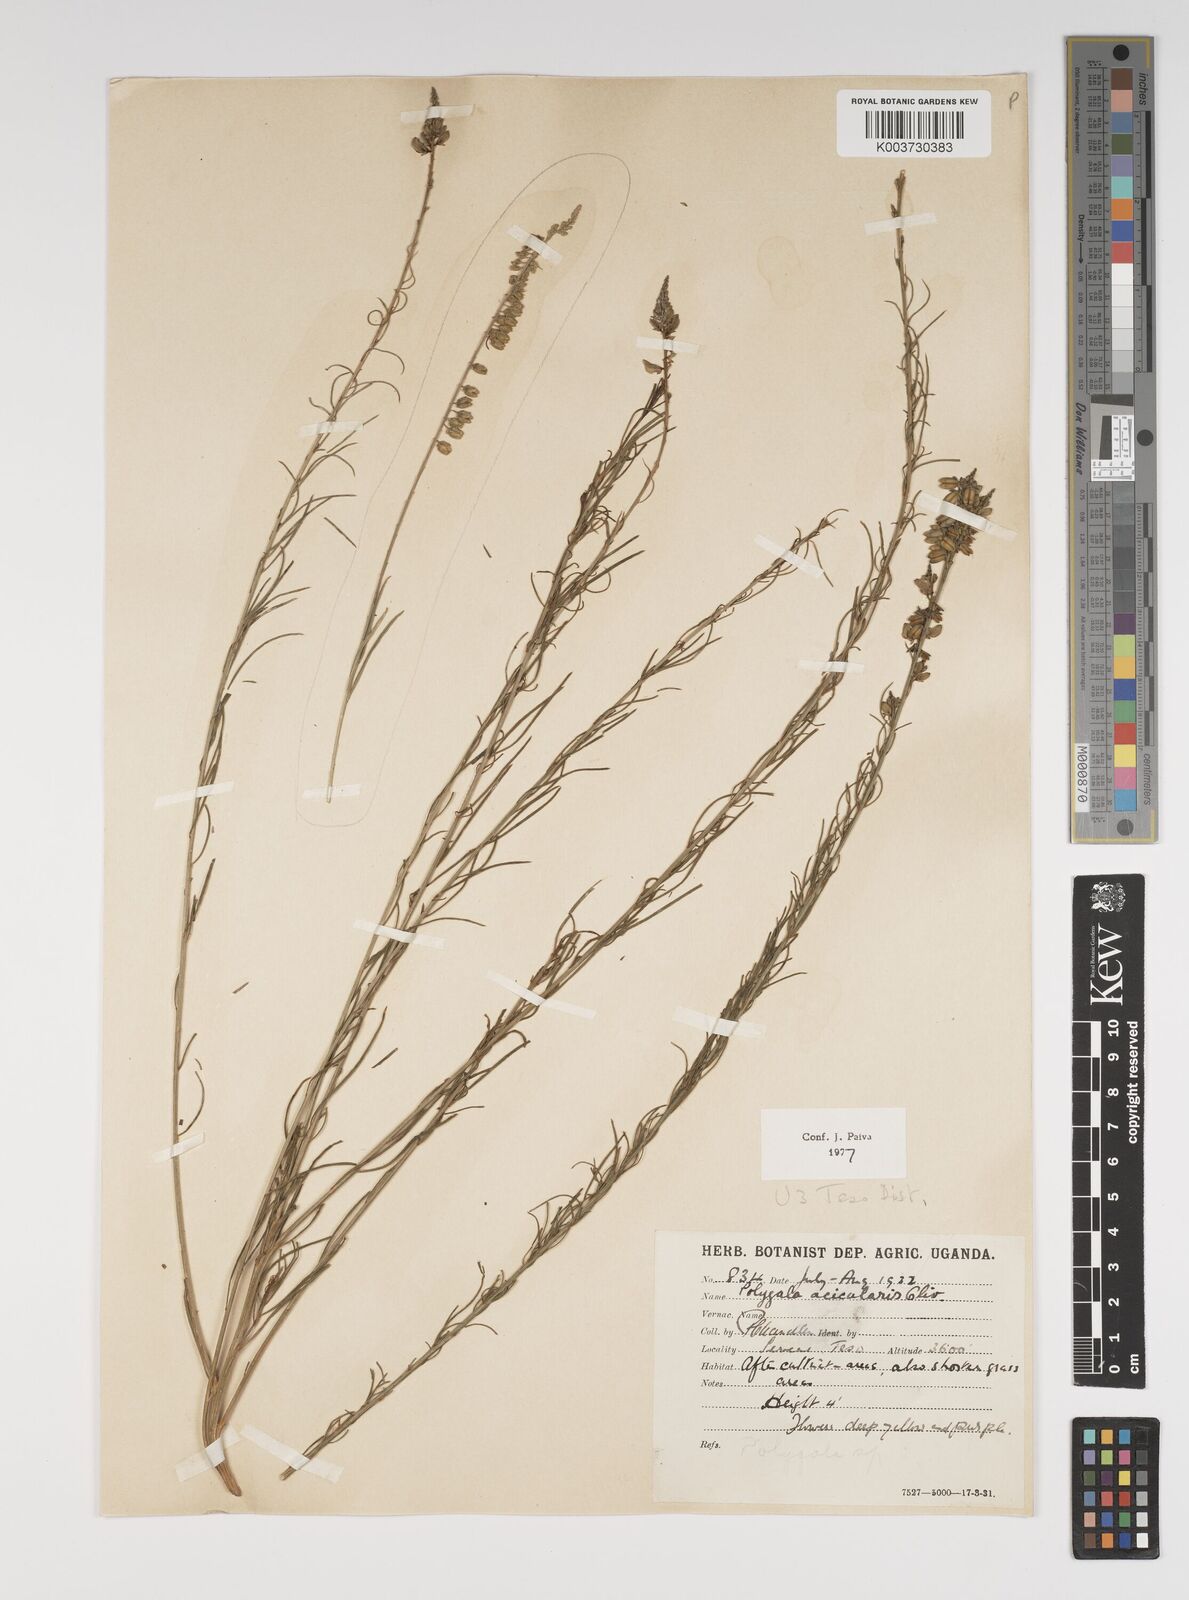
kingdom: Plantae
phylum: Tracheophyta
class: Magnoliopsida
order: Fabales
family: Polygalaceae
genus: Polygala
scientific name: Polygala acicularis
